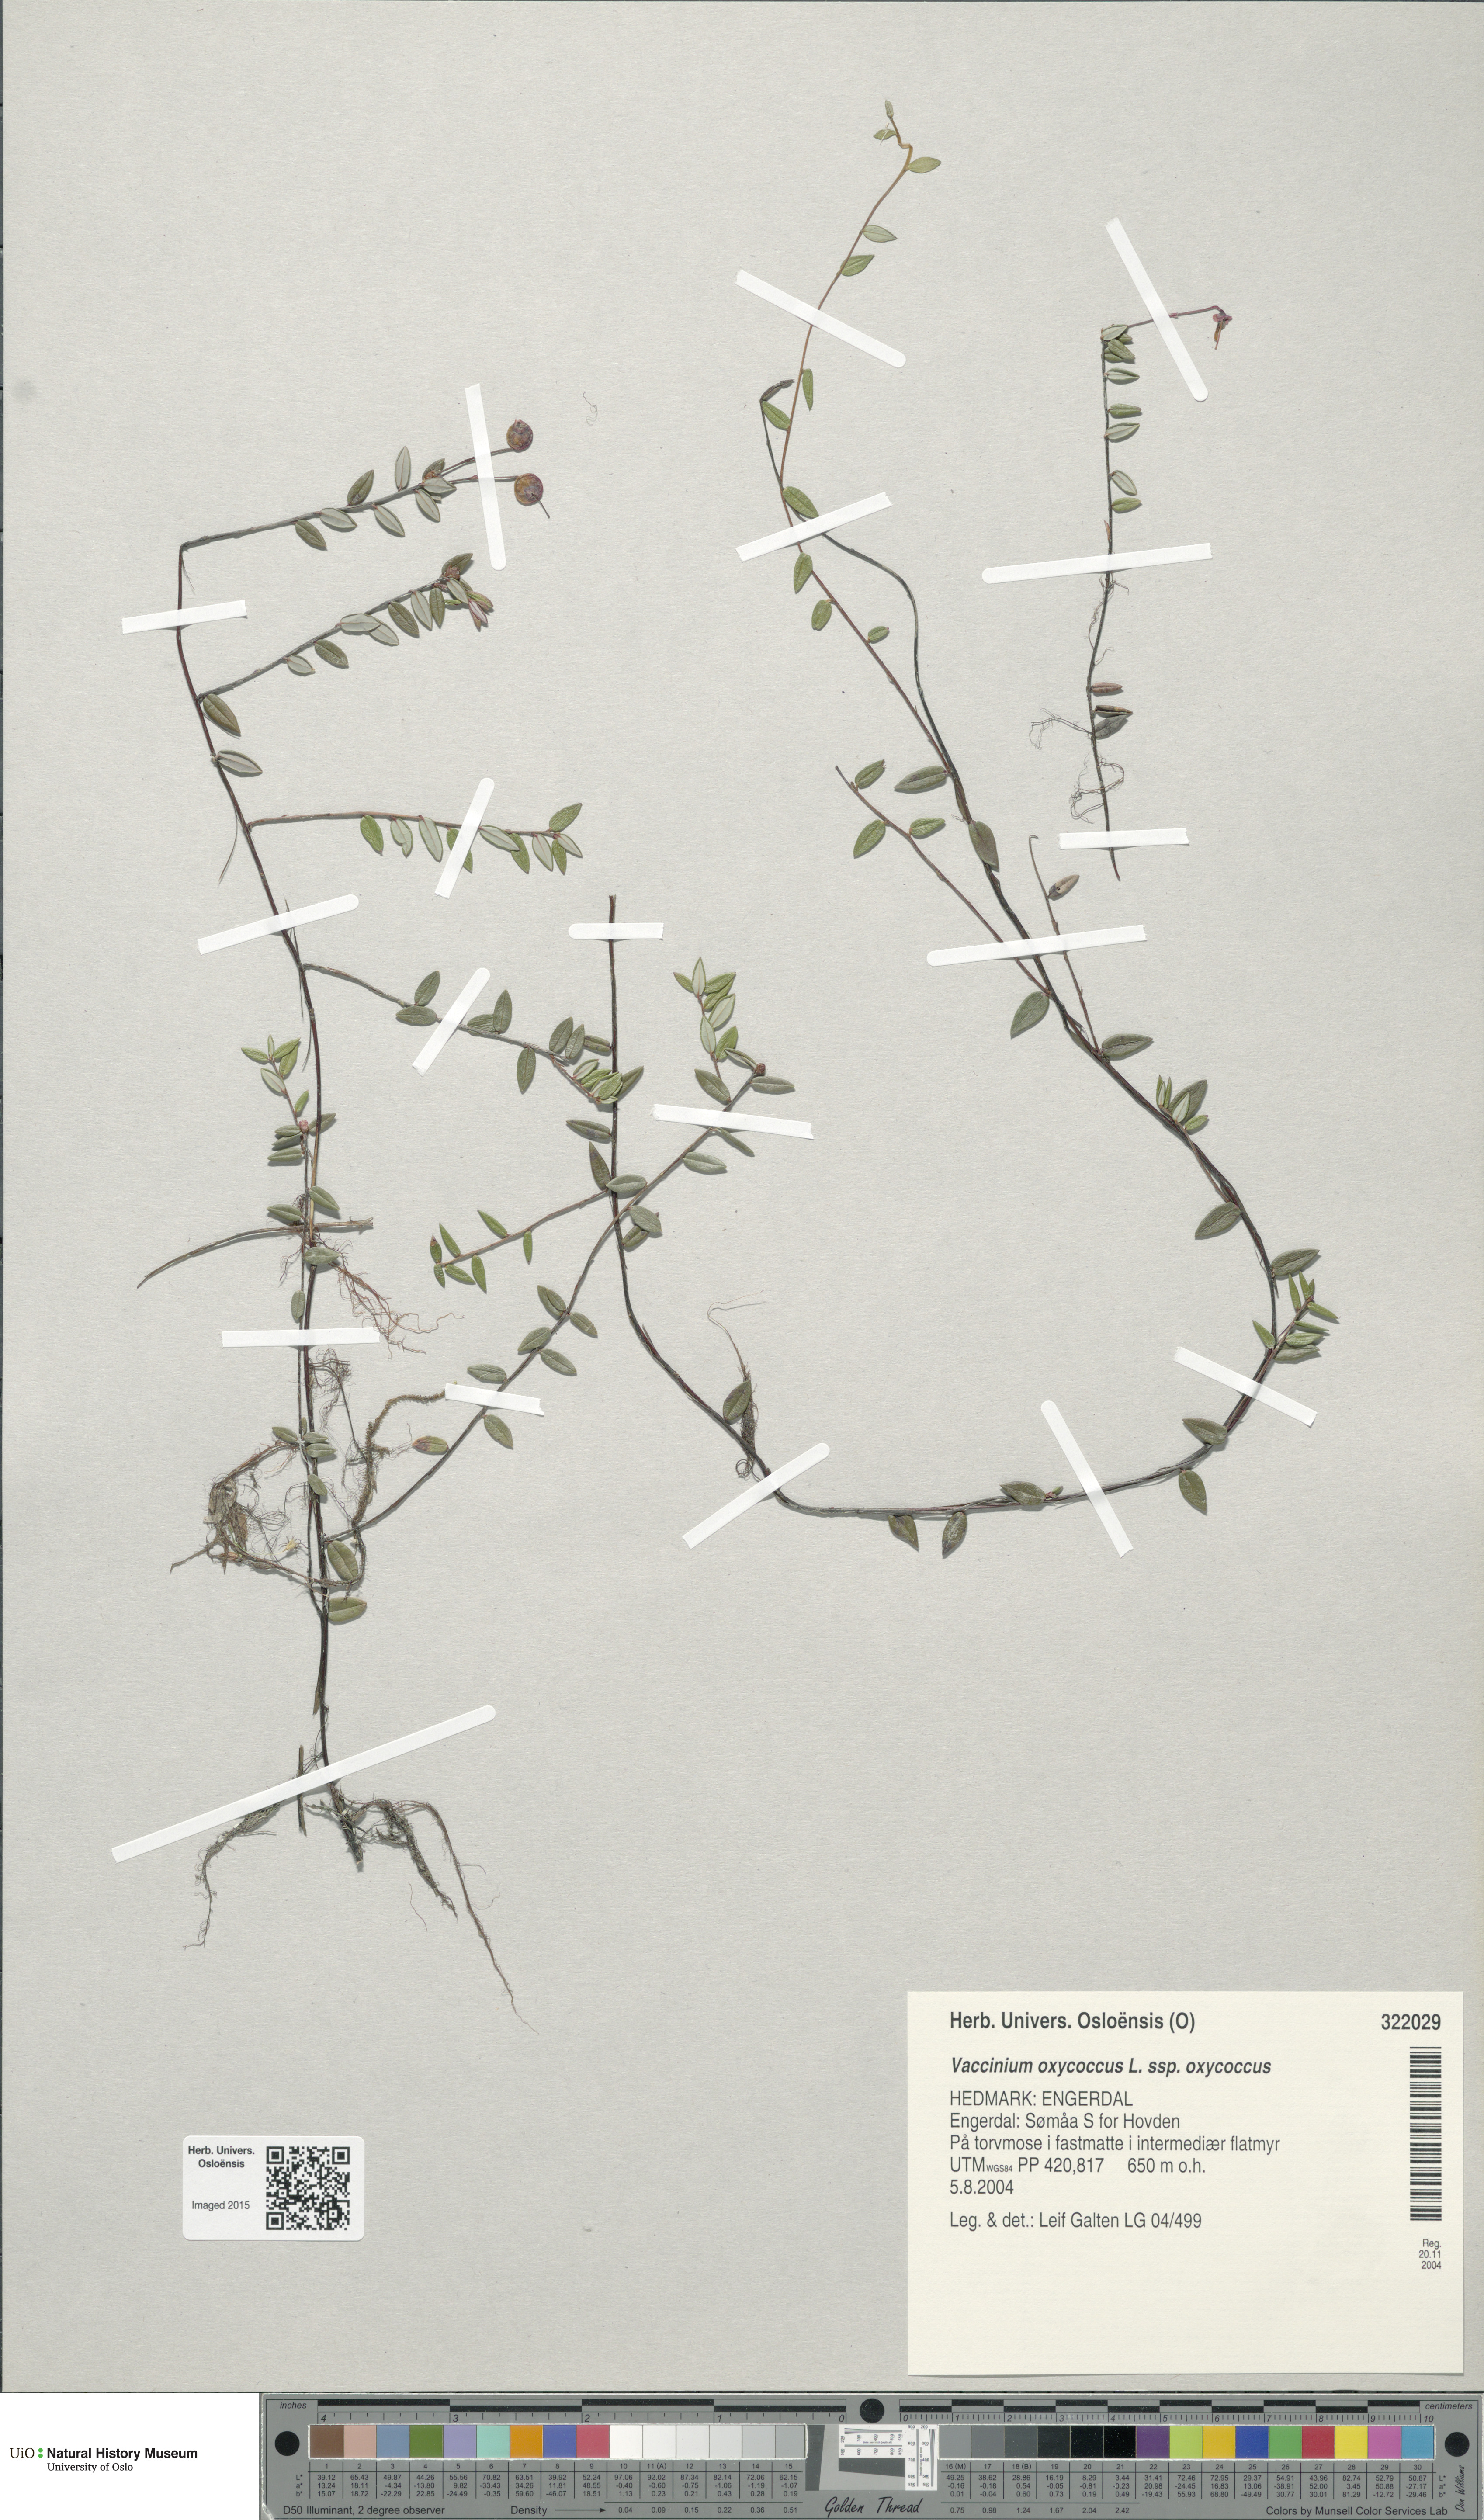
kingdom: Plantae
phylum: Tracheophyta
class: Magnoliopsida
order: Ericales
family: Ericaceae
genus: Vaccinium
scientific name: Vaccinium oxycoccos
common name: Cranberry
